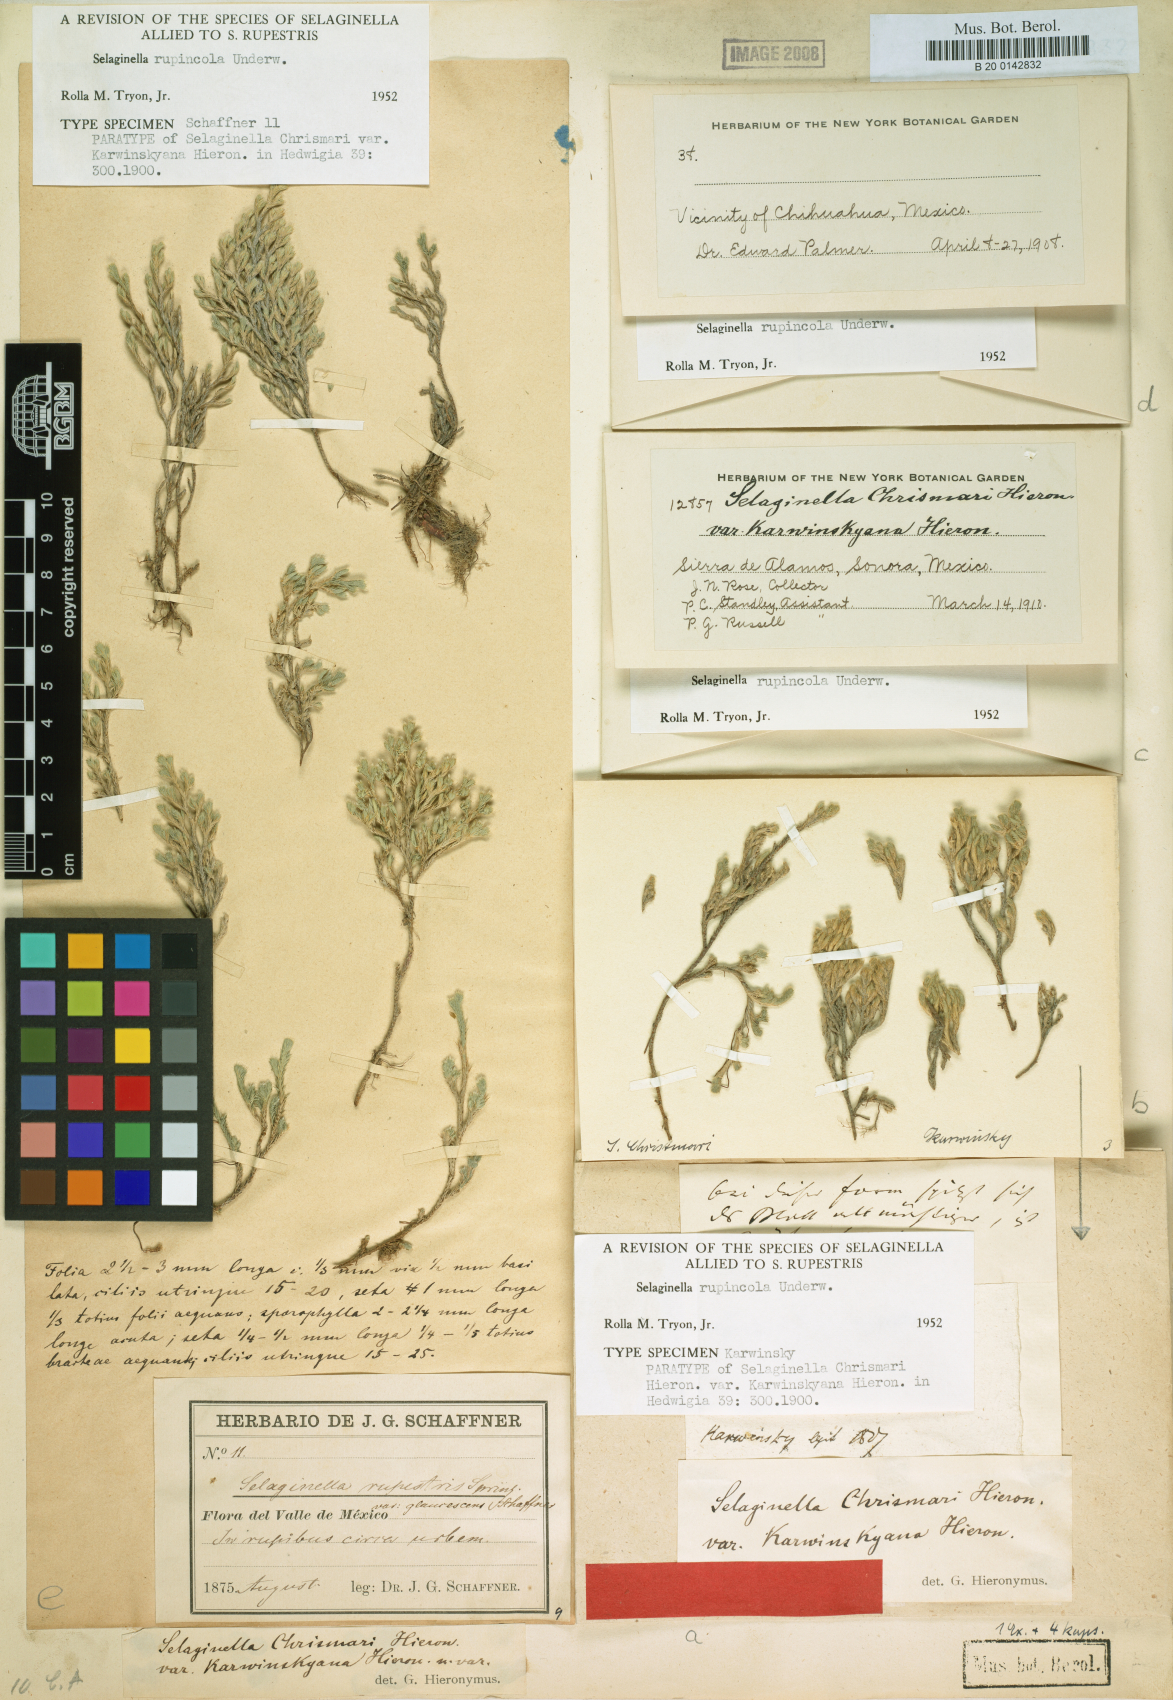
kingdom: Plantae
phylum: Tracheophyta
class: Lycopodiopsida
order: Selaginellales
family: Selaginellaceae
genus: Selaginella
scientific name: Selaginella rupincola
